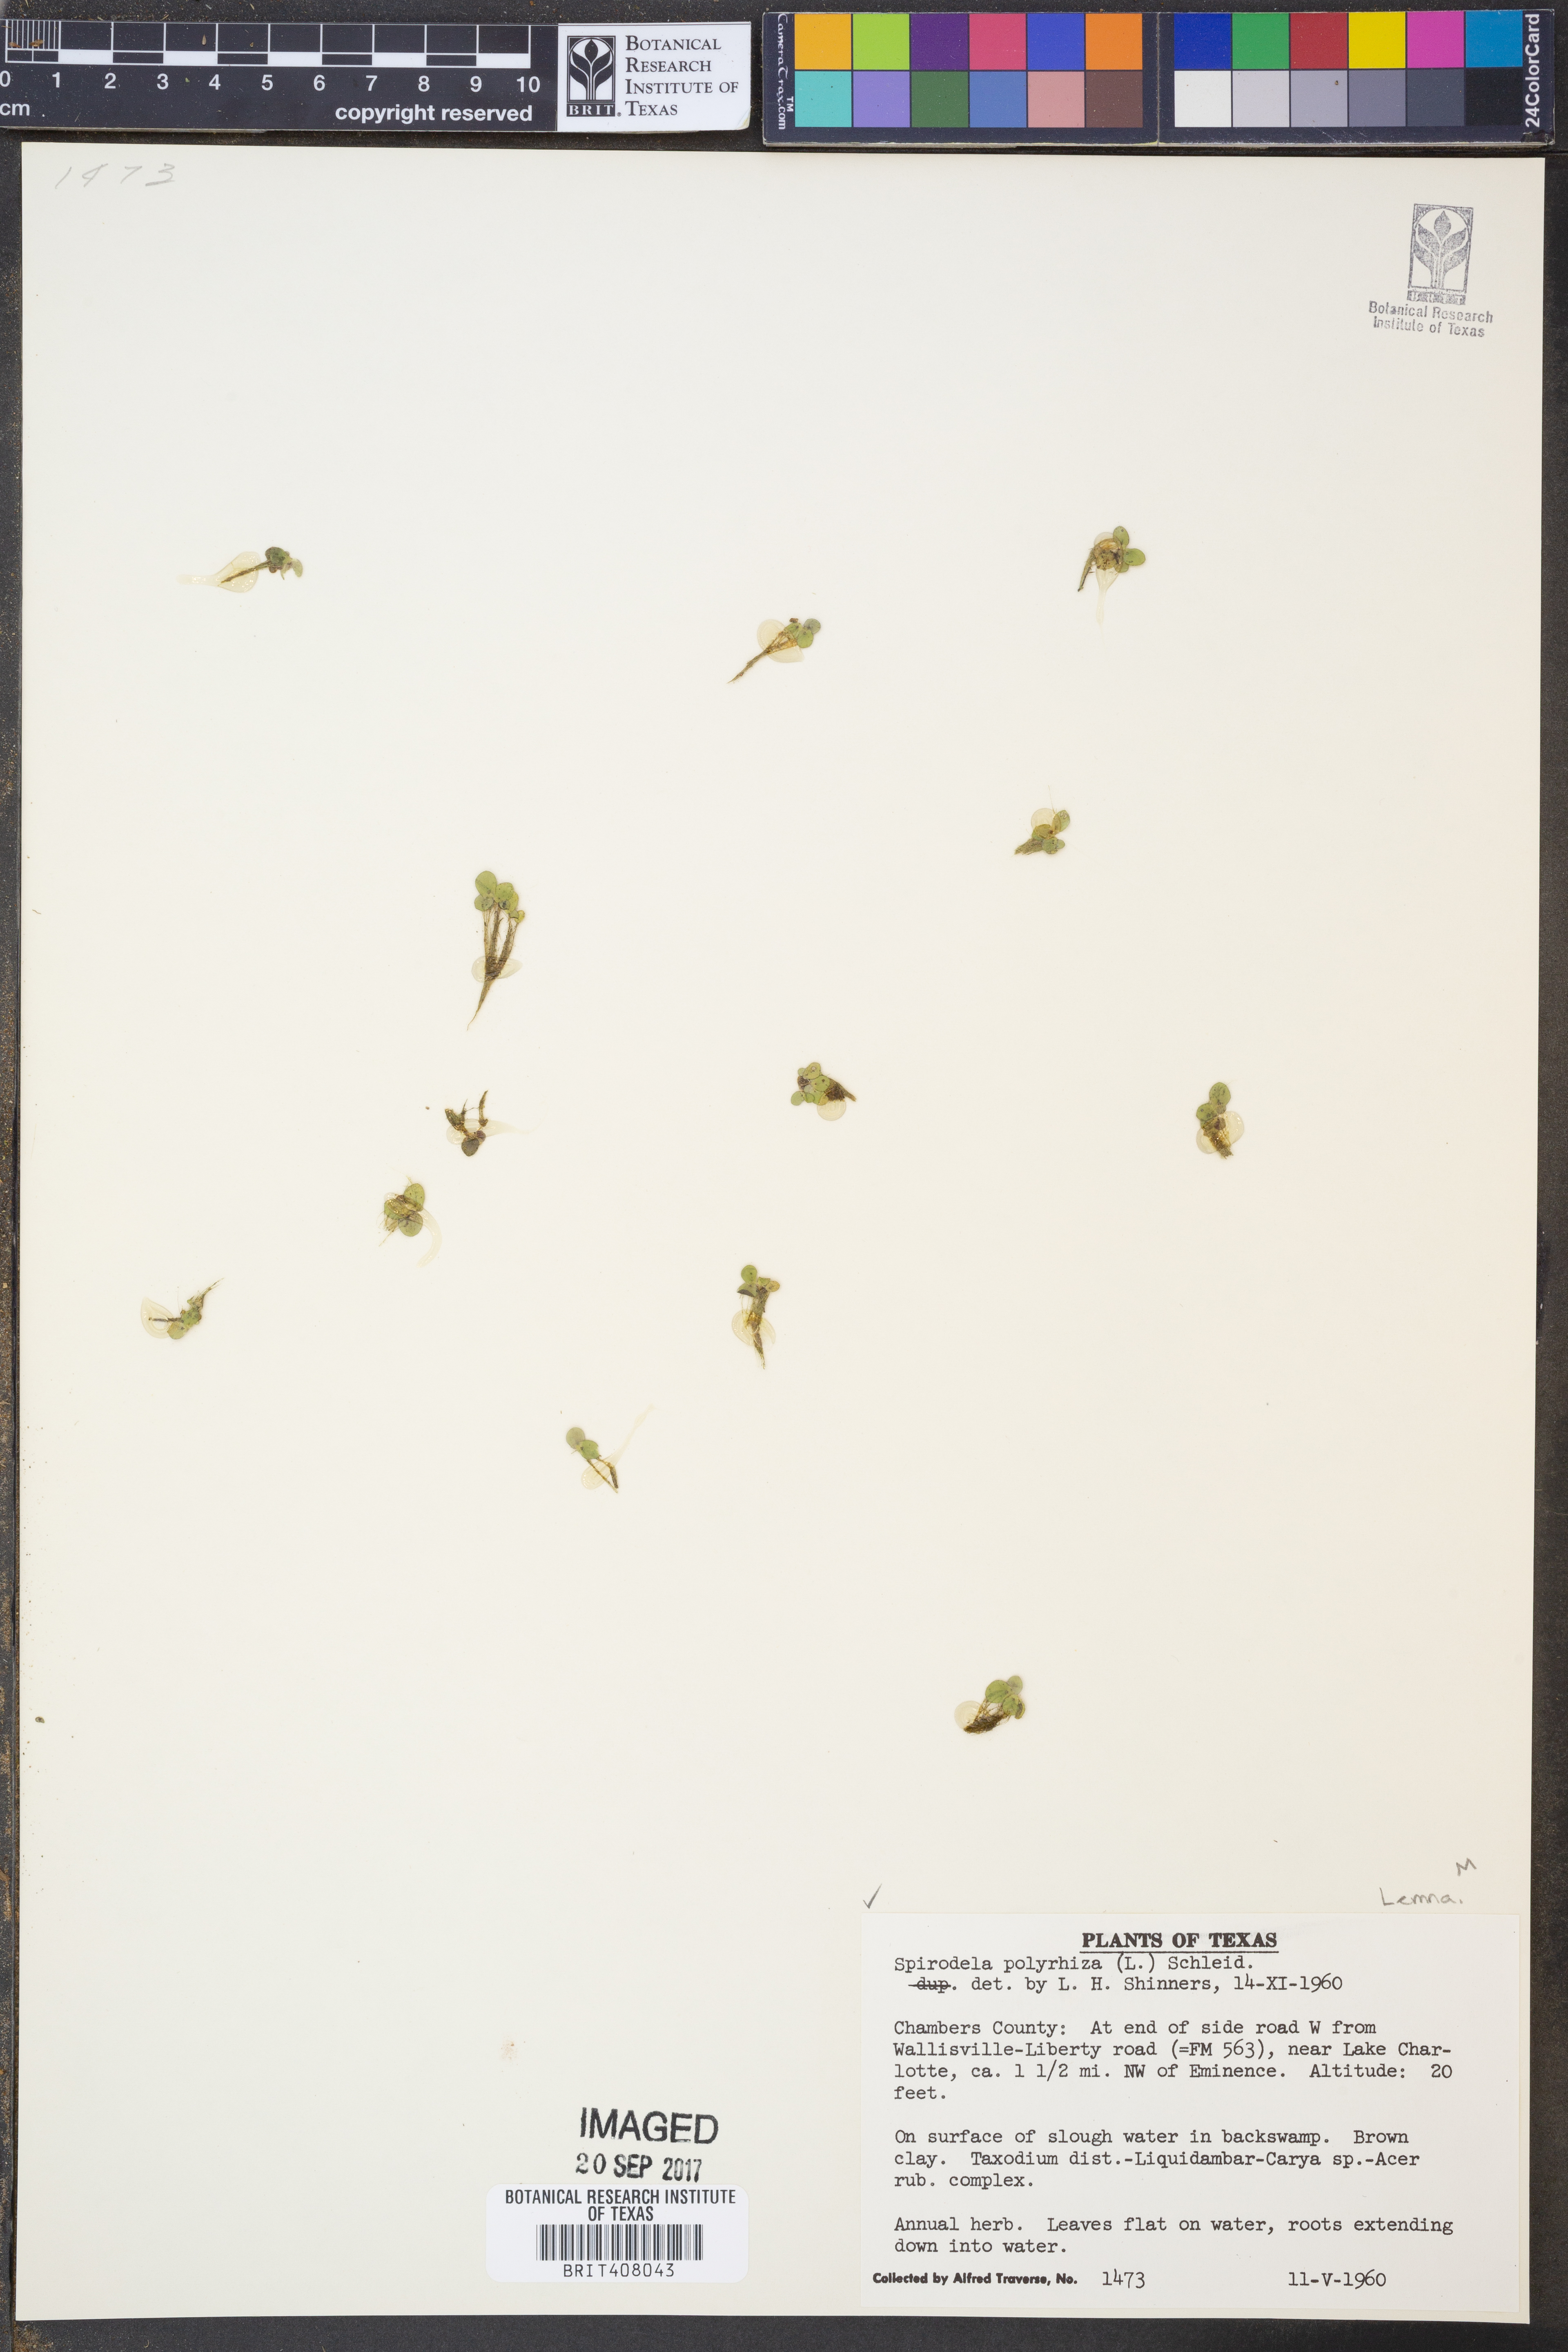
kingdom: Plantae
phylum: Tracheophyta
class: Liliopsida
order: Alismatales
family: Araceae
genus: Spirodela
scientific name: Spirodela polyrhiza
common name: Great duckweed
